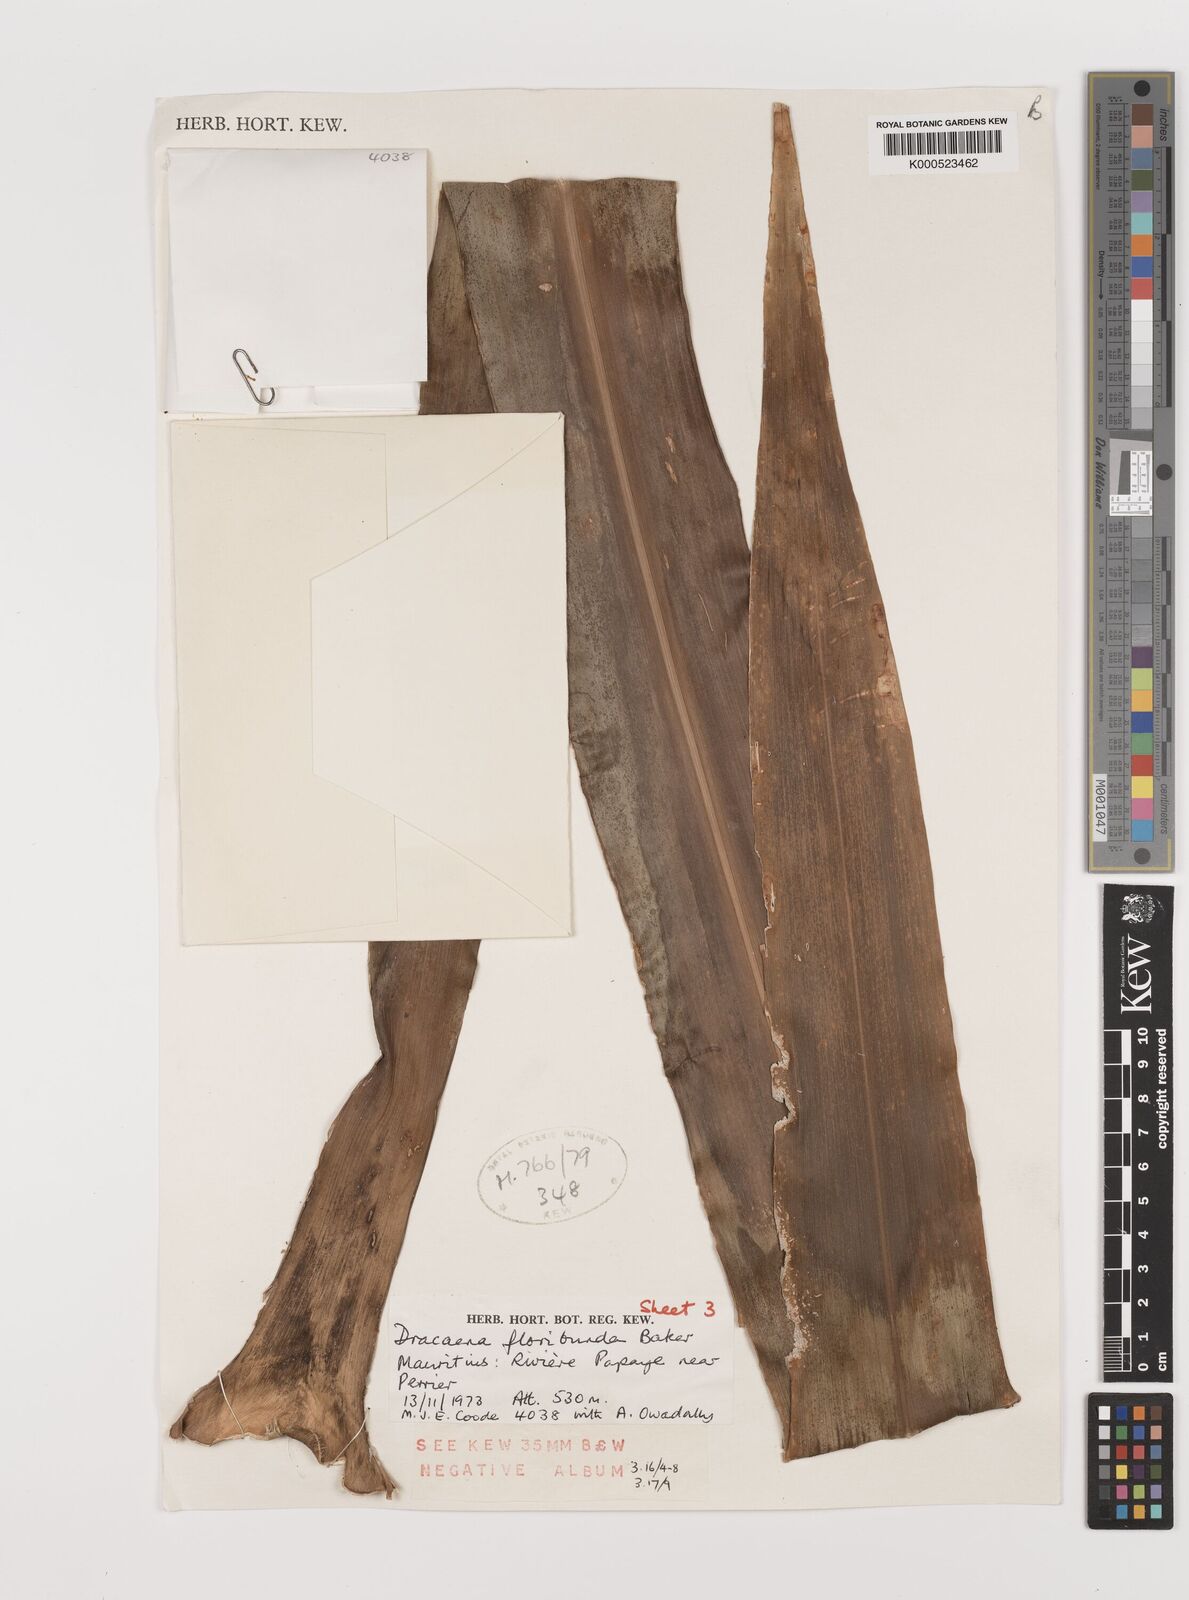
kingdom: Plantae
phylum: Tracheophyta
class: Liliopsida
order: Asparagales
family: Asparagaceae
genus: Dracaena
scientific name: Dracaena floribunda
